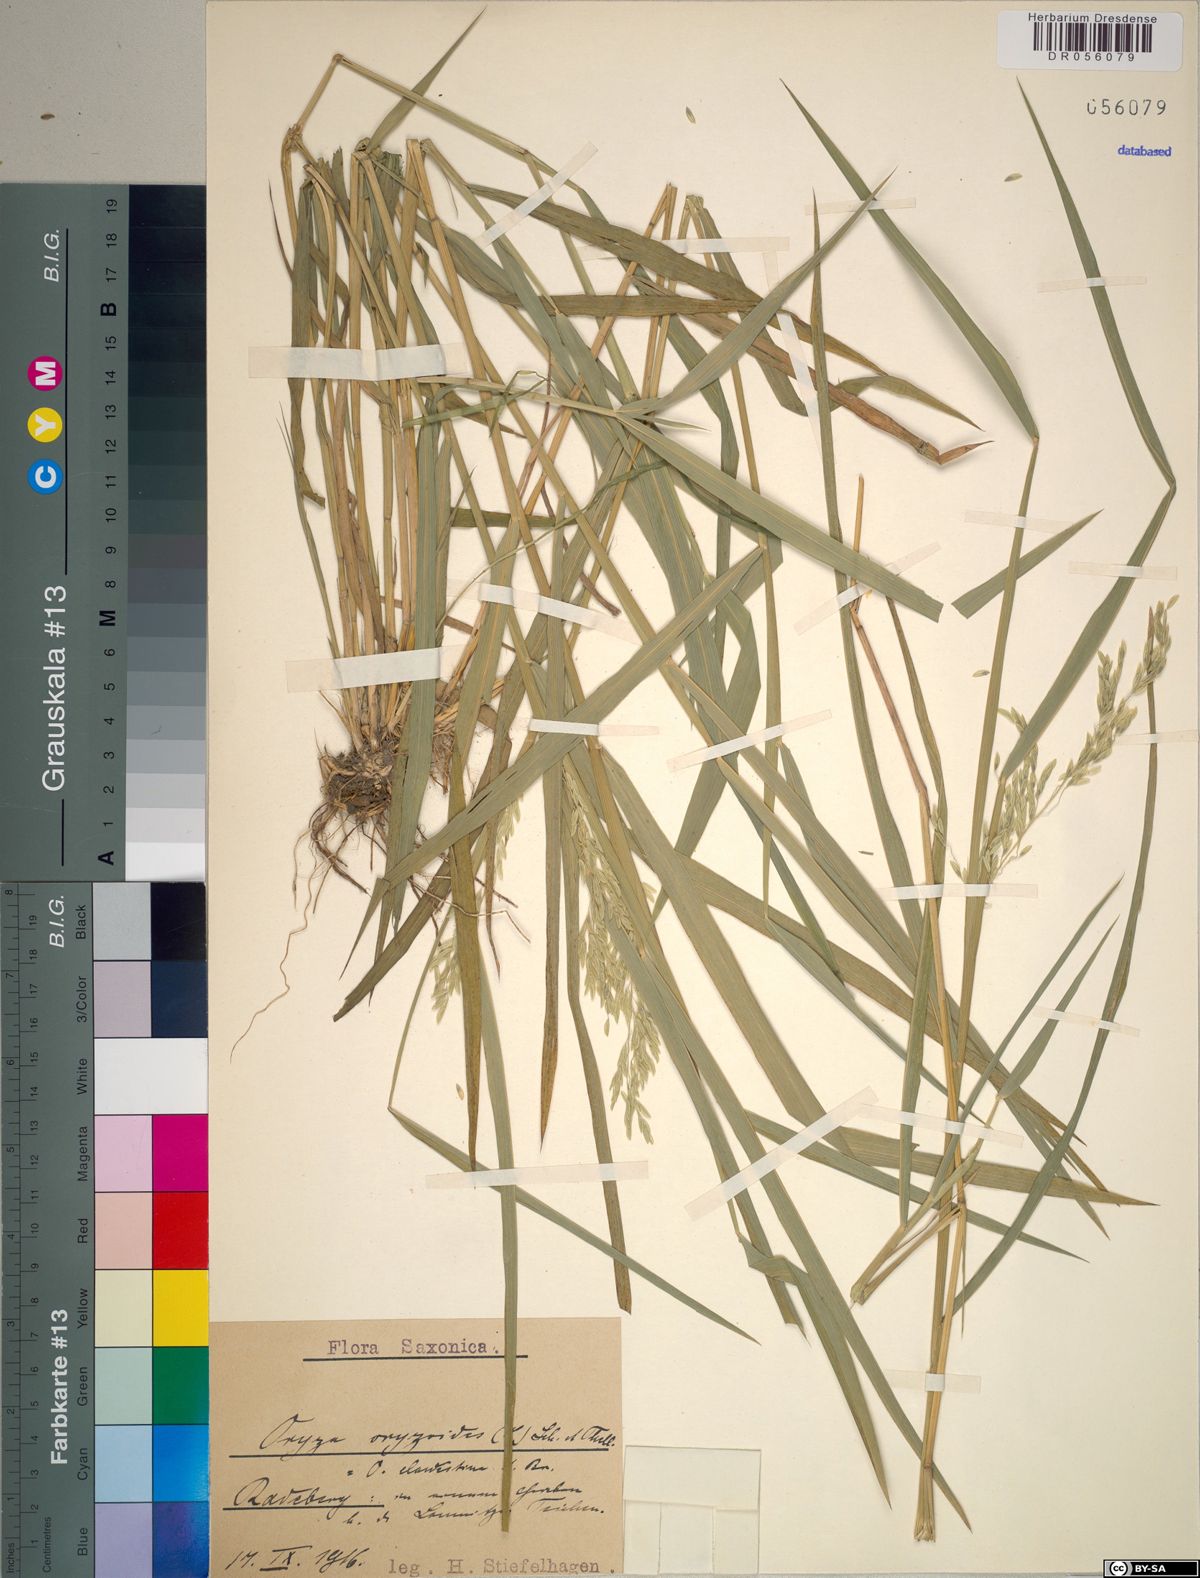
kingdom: Plantae
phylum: Tracheophyta
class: Liliopsida
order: Poales
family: Poaceae
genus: Leersia
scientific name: Leersia oryzoides
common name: Cut-grass
